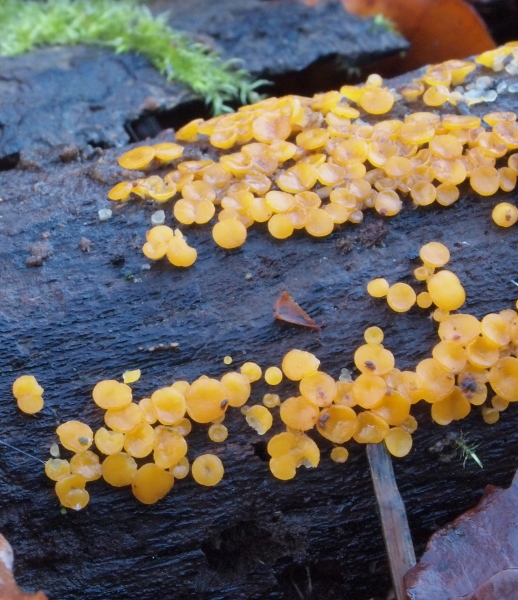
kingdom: Fungi
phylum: Ascomycota
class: Leotiomycetes
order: Helotiales
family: Pezizellaceae
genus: Calycina
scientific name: Calycina citrina
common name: almindelig gulskive
